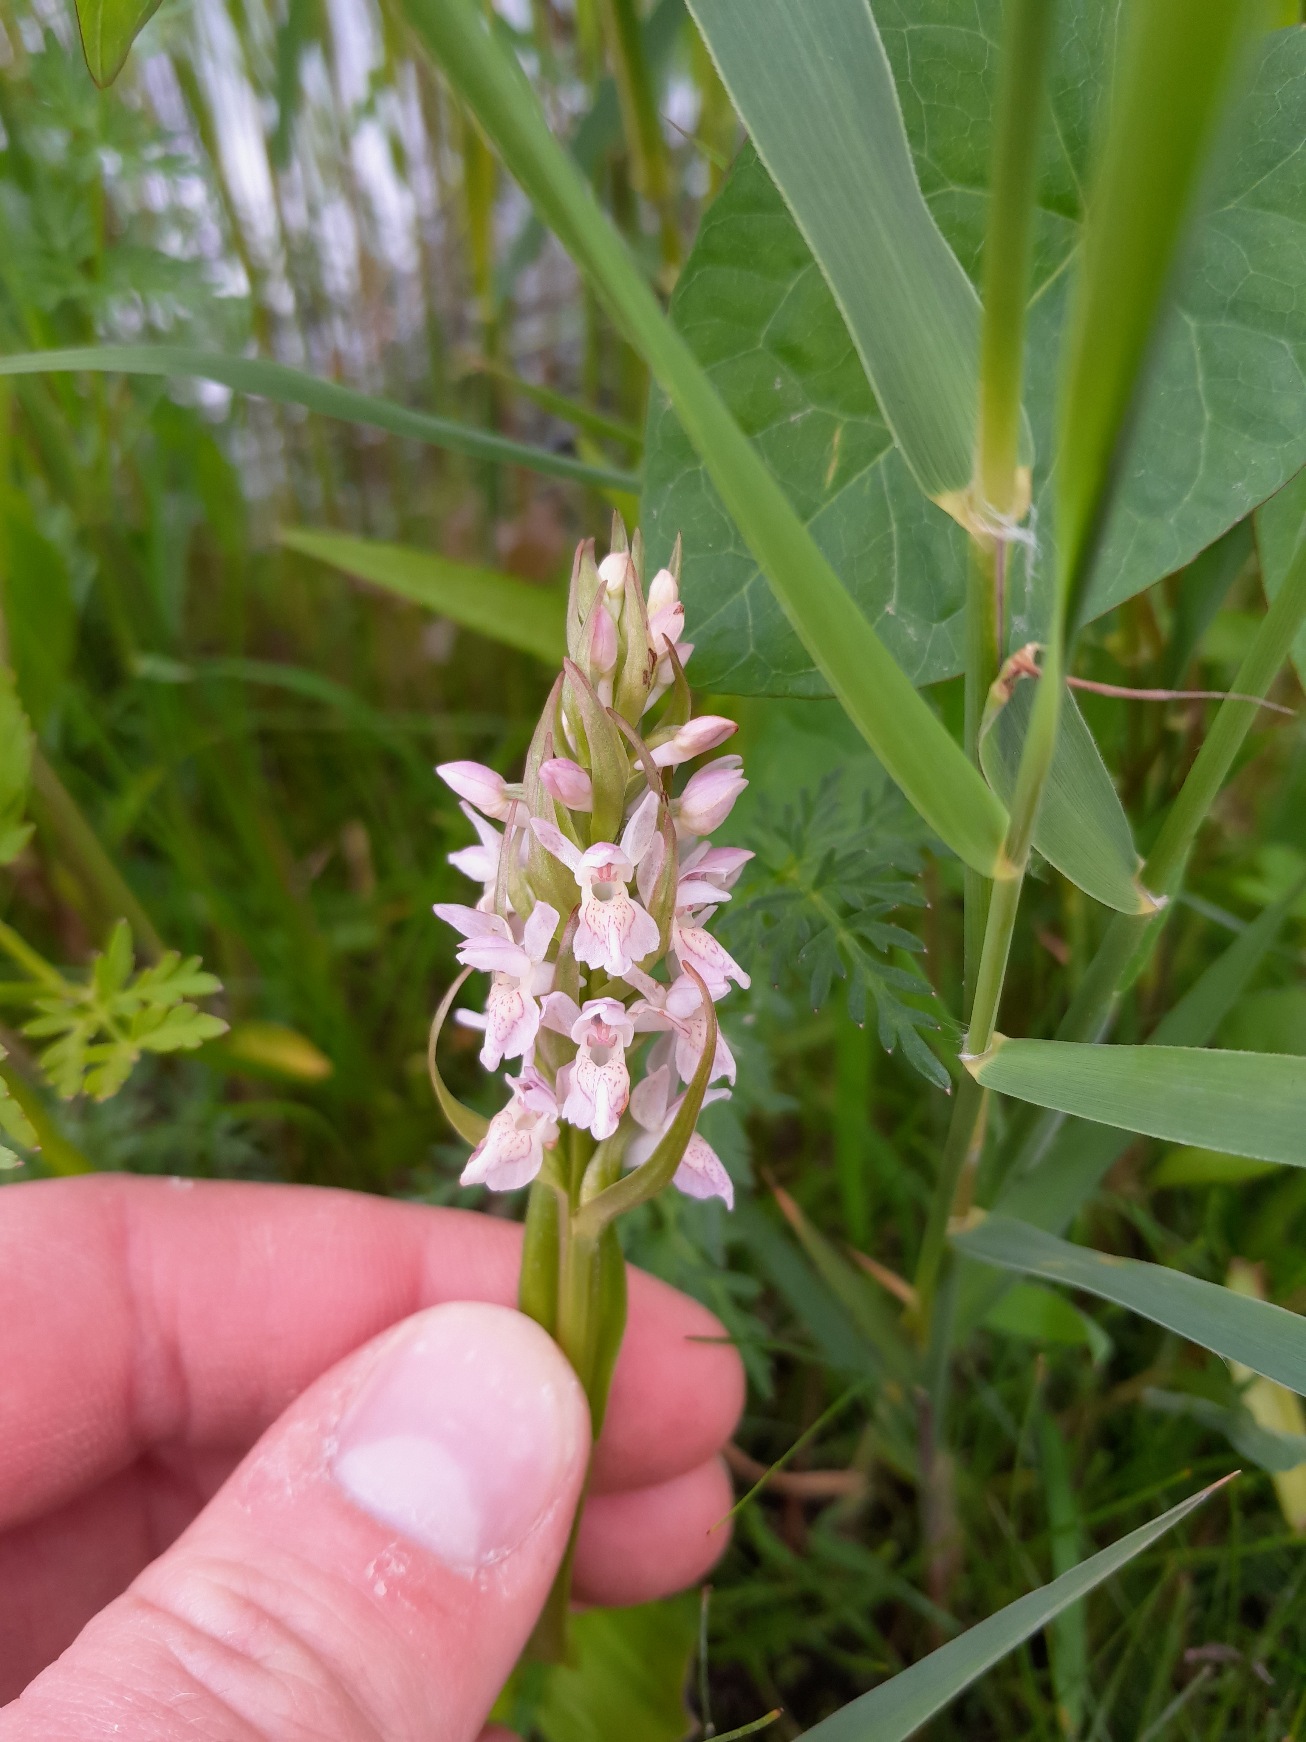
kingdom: Plantae
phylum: Tracheophyta
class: Liliopsida
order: Asparagales
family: Orchidaceae
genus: Dactylorhiza
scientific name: Dactylorhiza incarnata
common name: Kødfarvet gøgeurt
